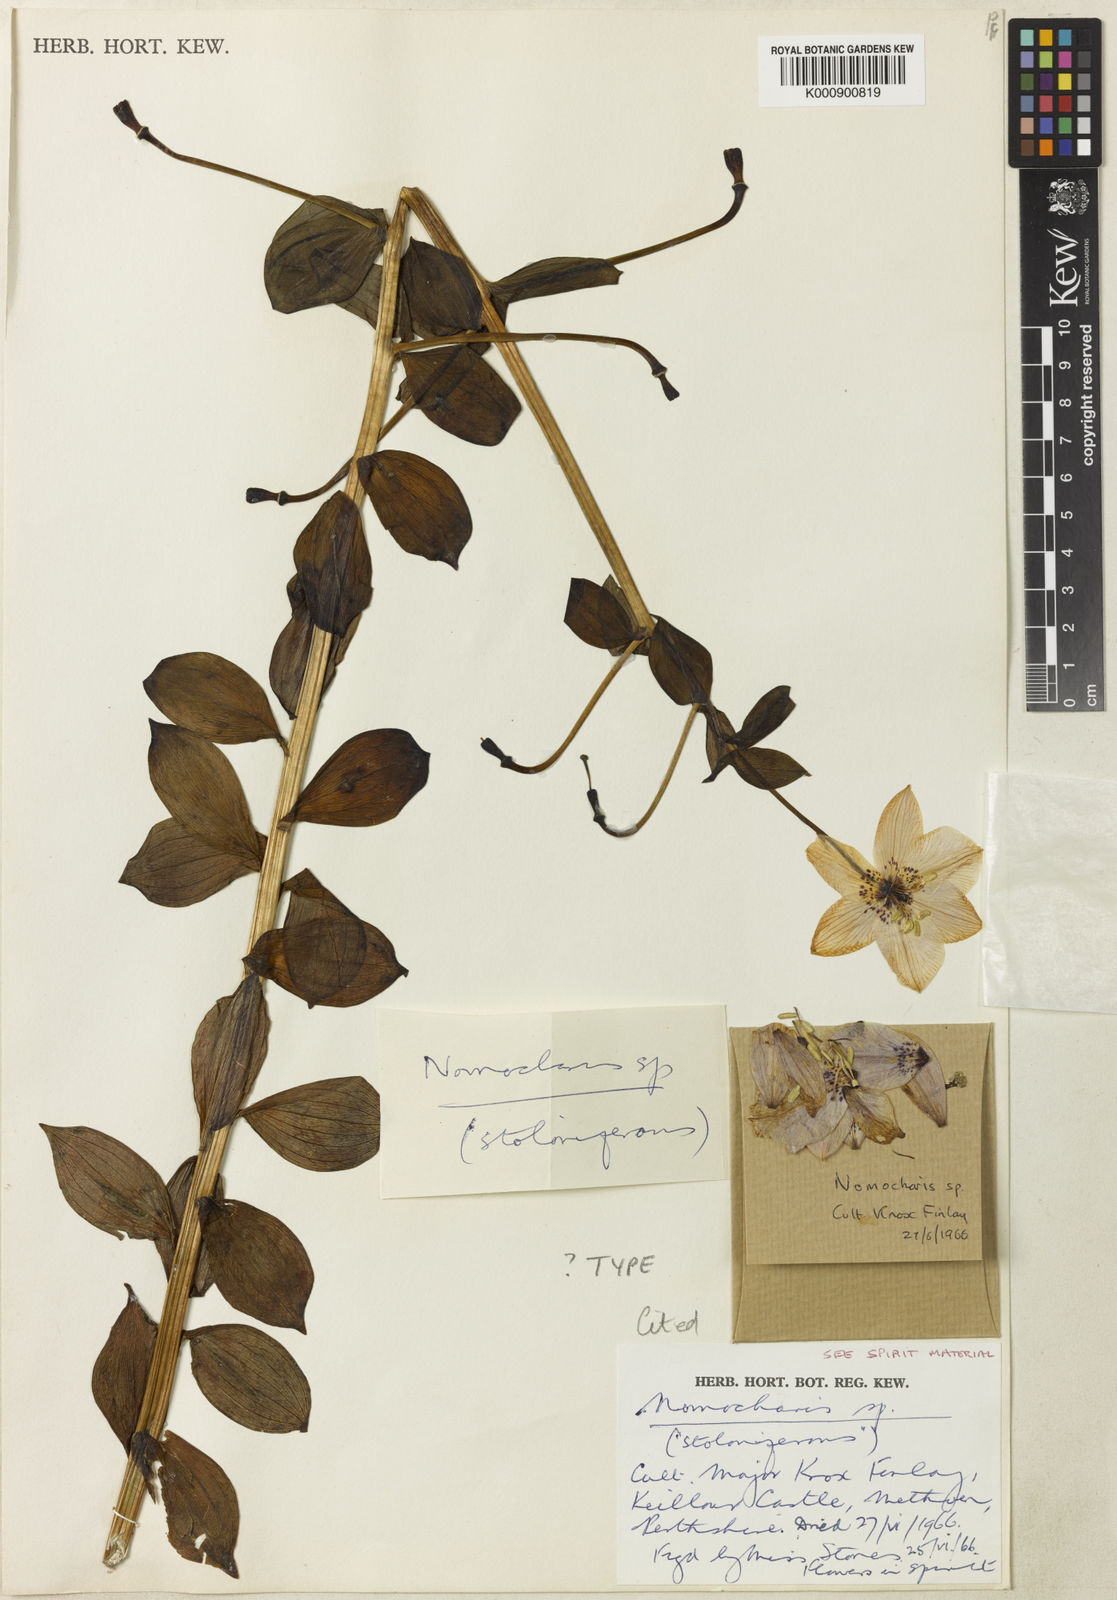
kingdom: Plantae
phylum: Tracheophyta
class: Liliopsida
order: Liliales
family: Liliaceae
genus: Lilium
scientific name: Lilium Nomocharis finlayorum
